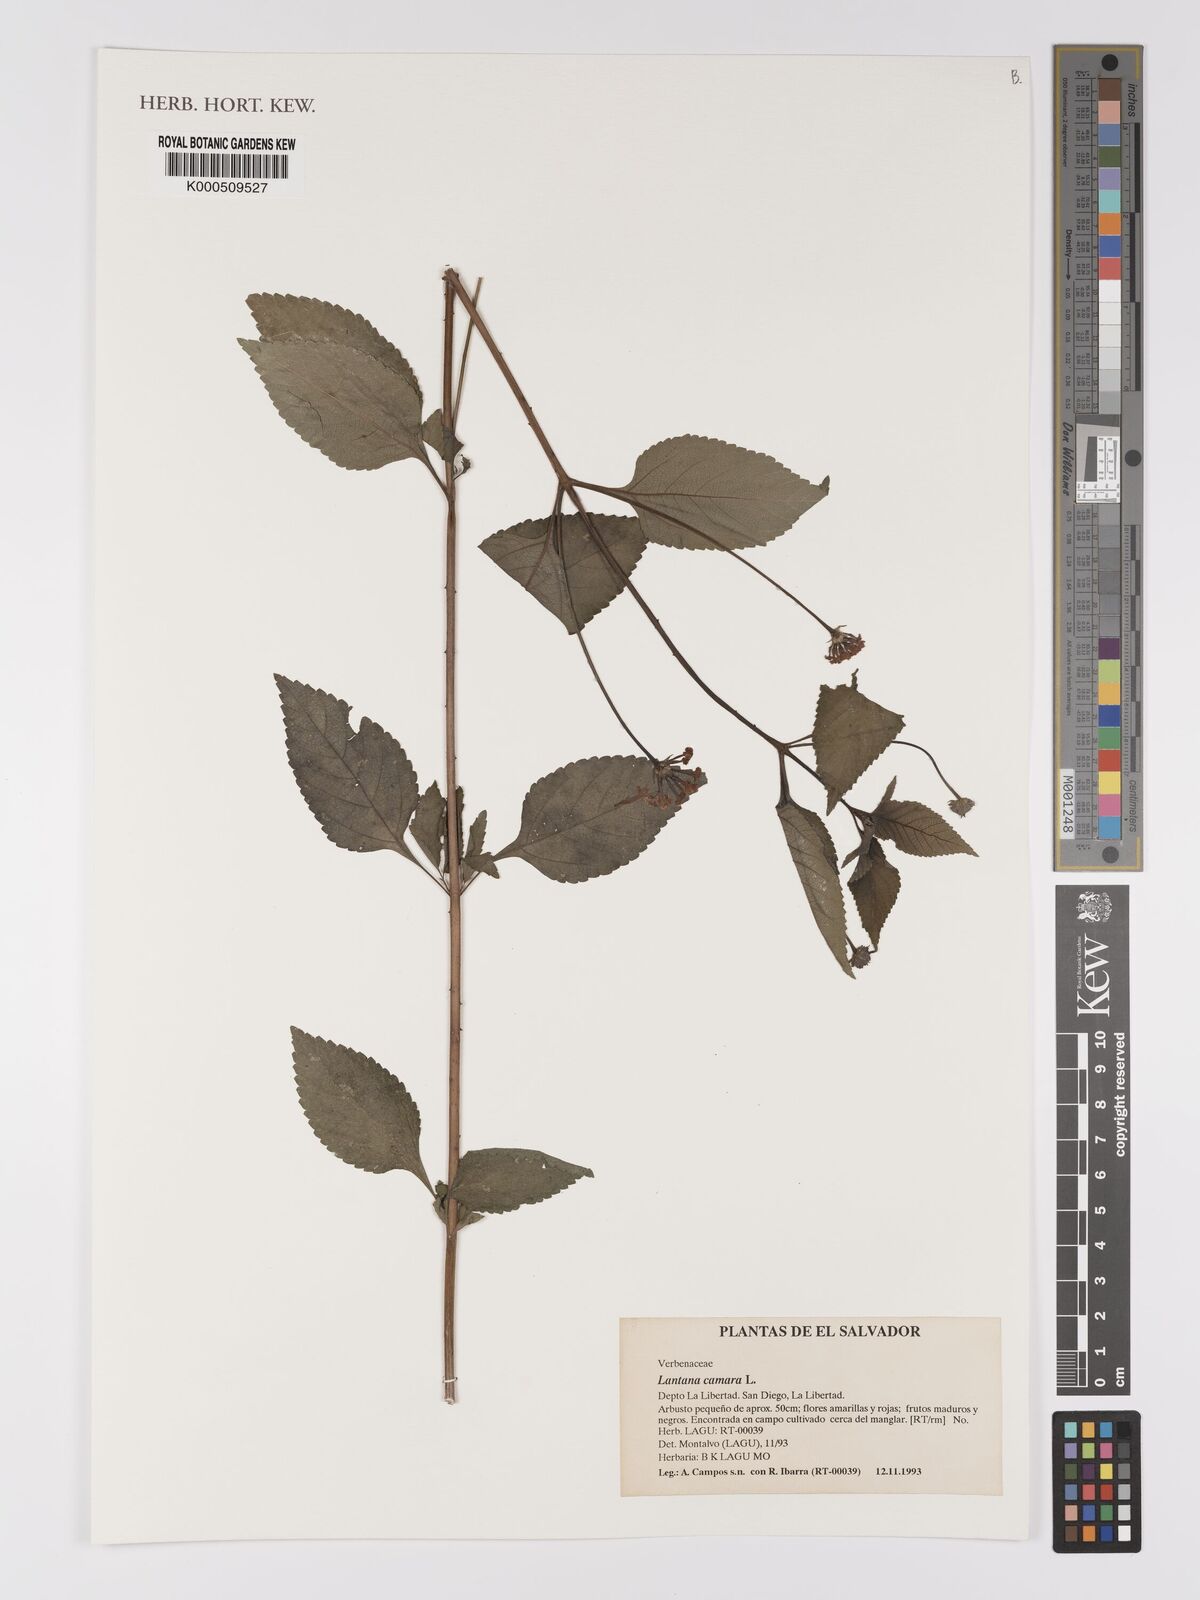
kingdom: Plantae
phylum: Tracheophyta
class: Magnoliopsida
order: Lamiales
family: Verbenaceae
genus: Lantana
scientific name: Lantana camara
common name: Lantana
